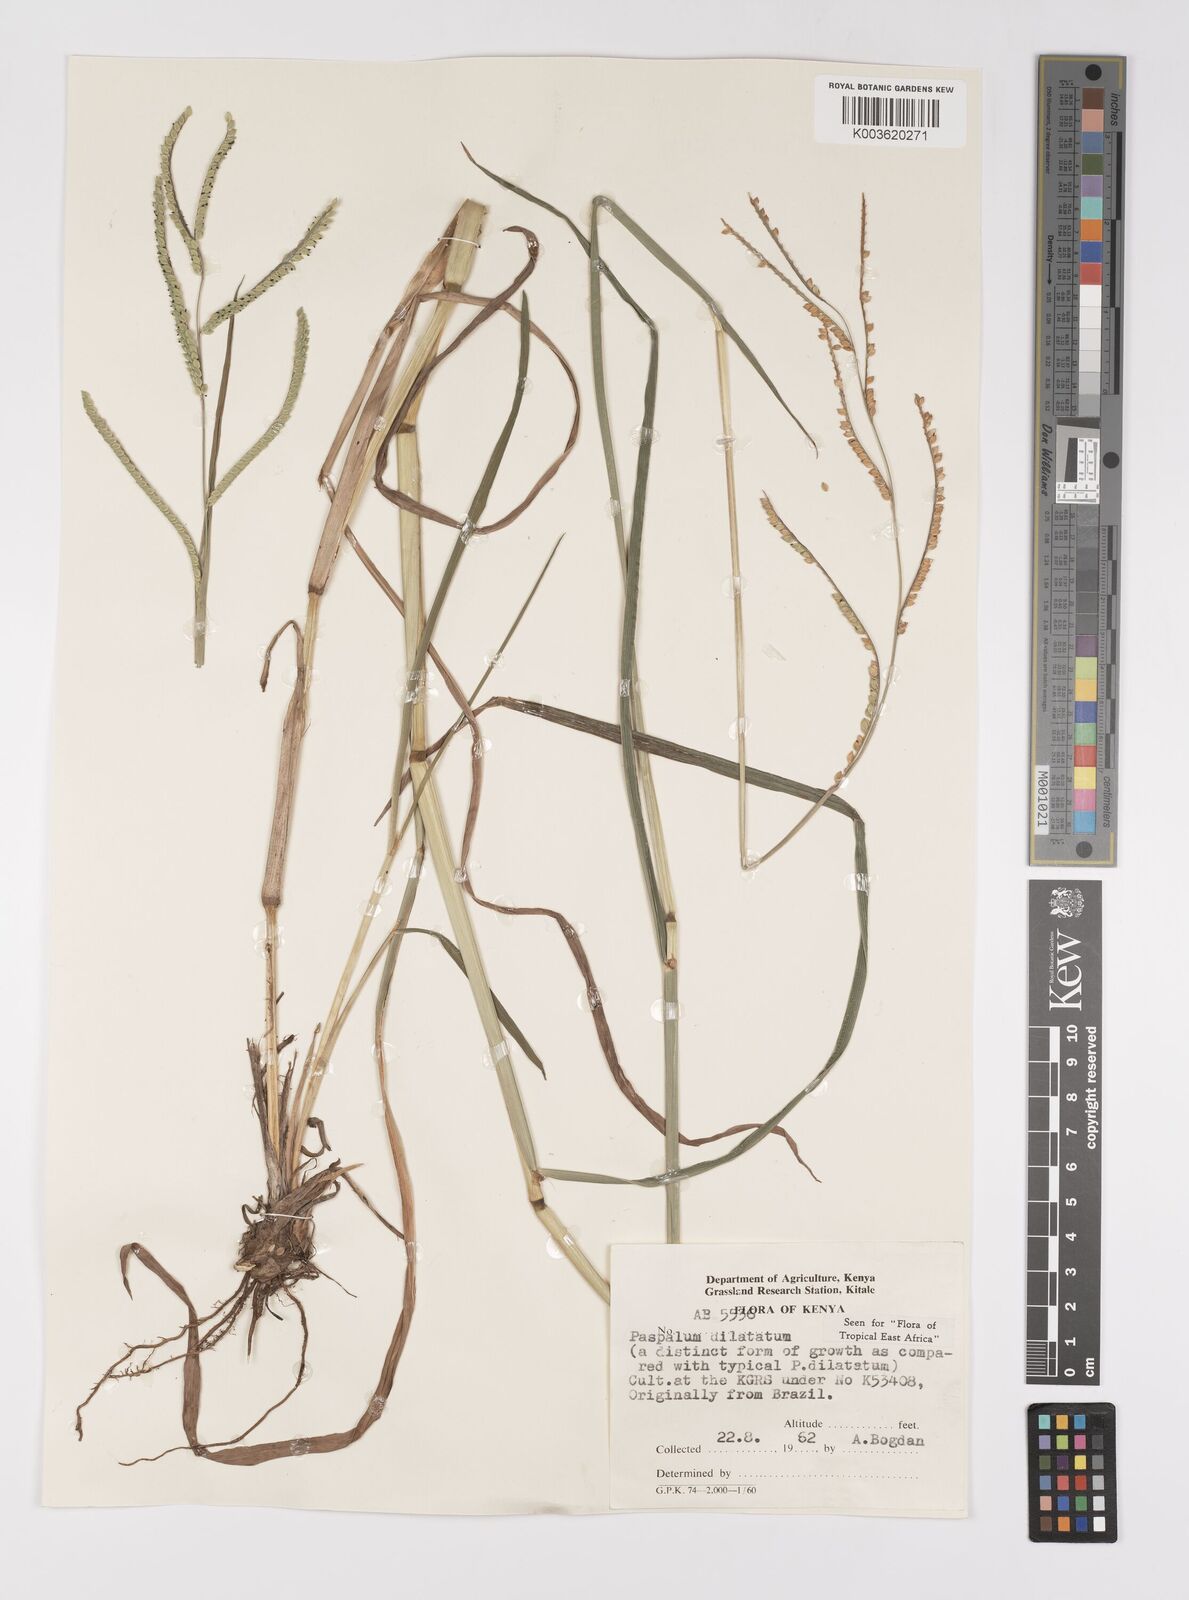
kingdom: Plantae
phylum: Tracheophyta
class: Liliopsida
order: Poales
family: Poaceae
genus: Paspalum
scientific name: Paspalum dilatatum
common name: Dallisgrass
